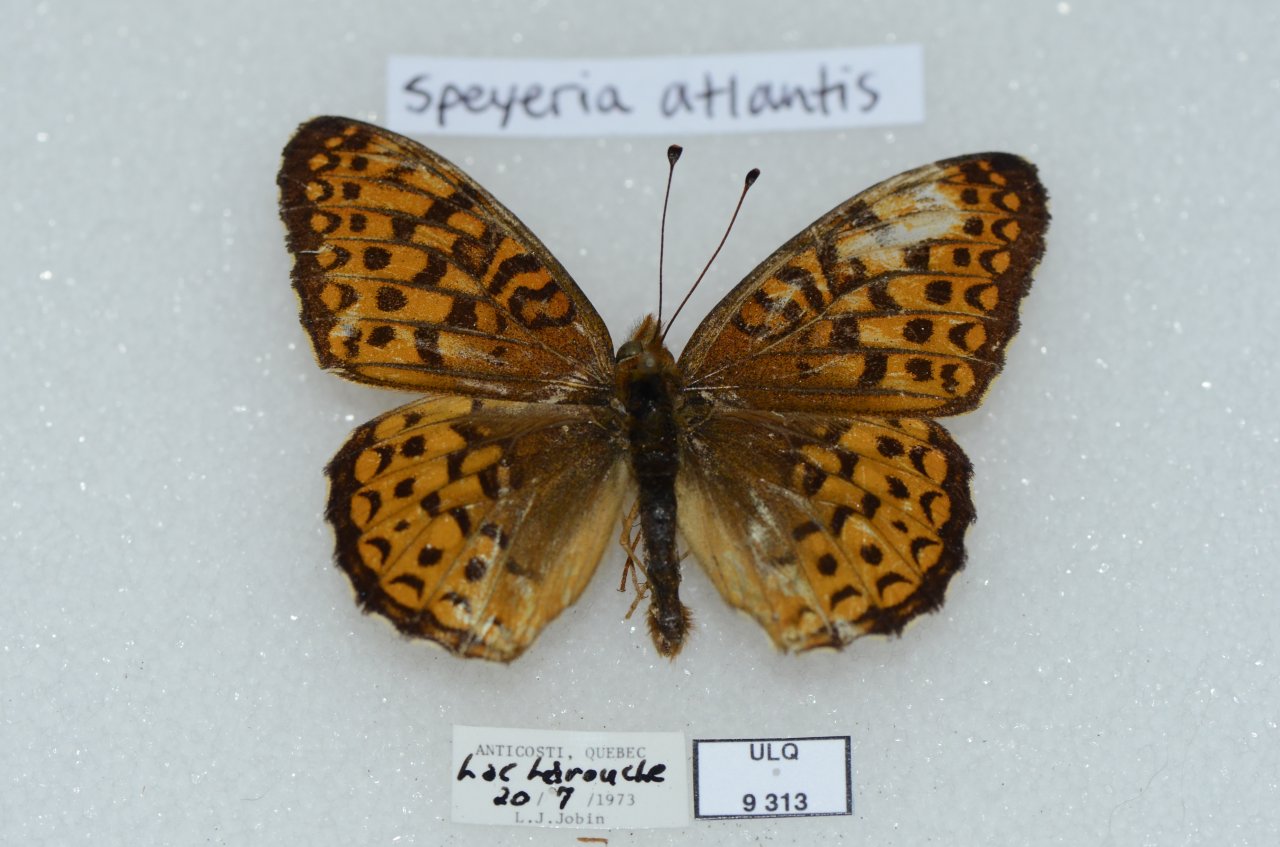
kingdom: Animalia
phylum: Arthropoda
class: Insecta
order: Lepidoptera
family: Nymphalidae
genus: Speyeria
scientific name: Speyeria atlantis
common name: Atlantis Fritillary
